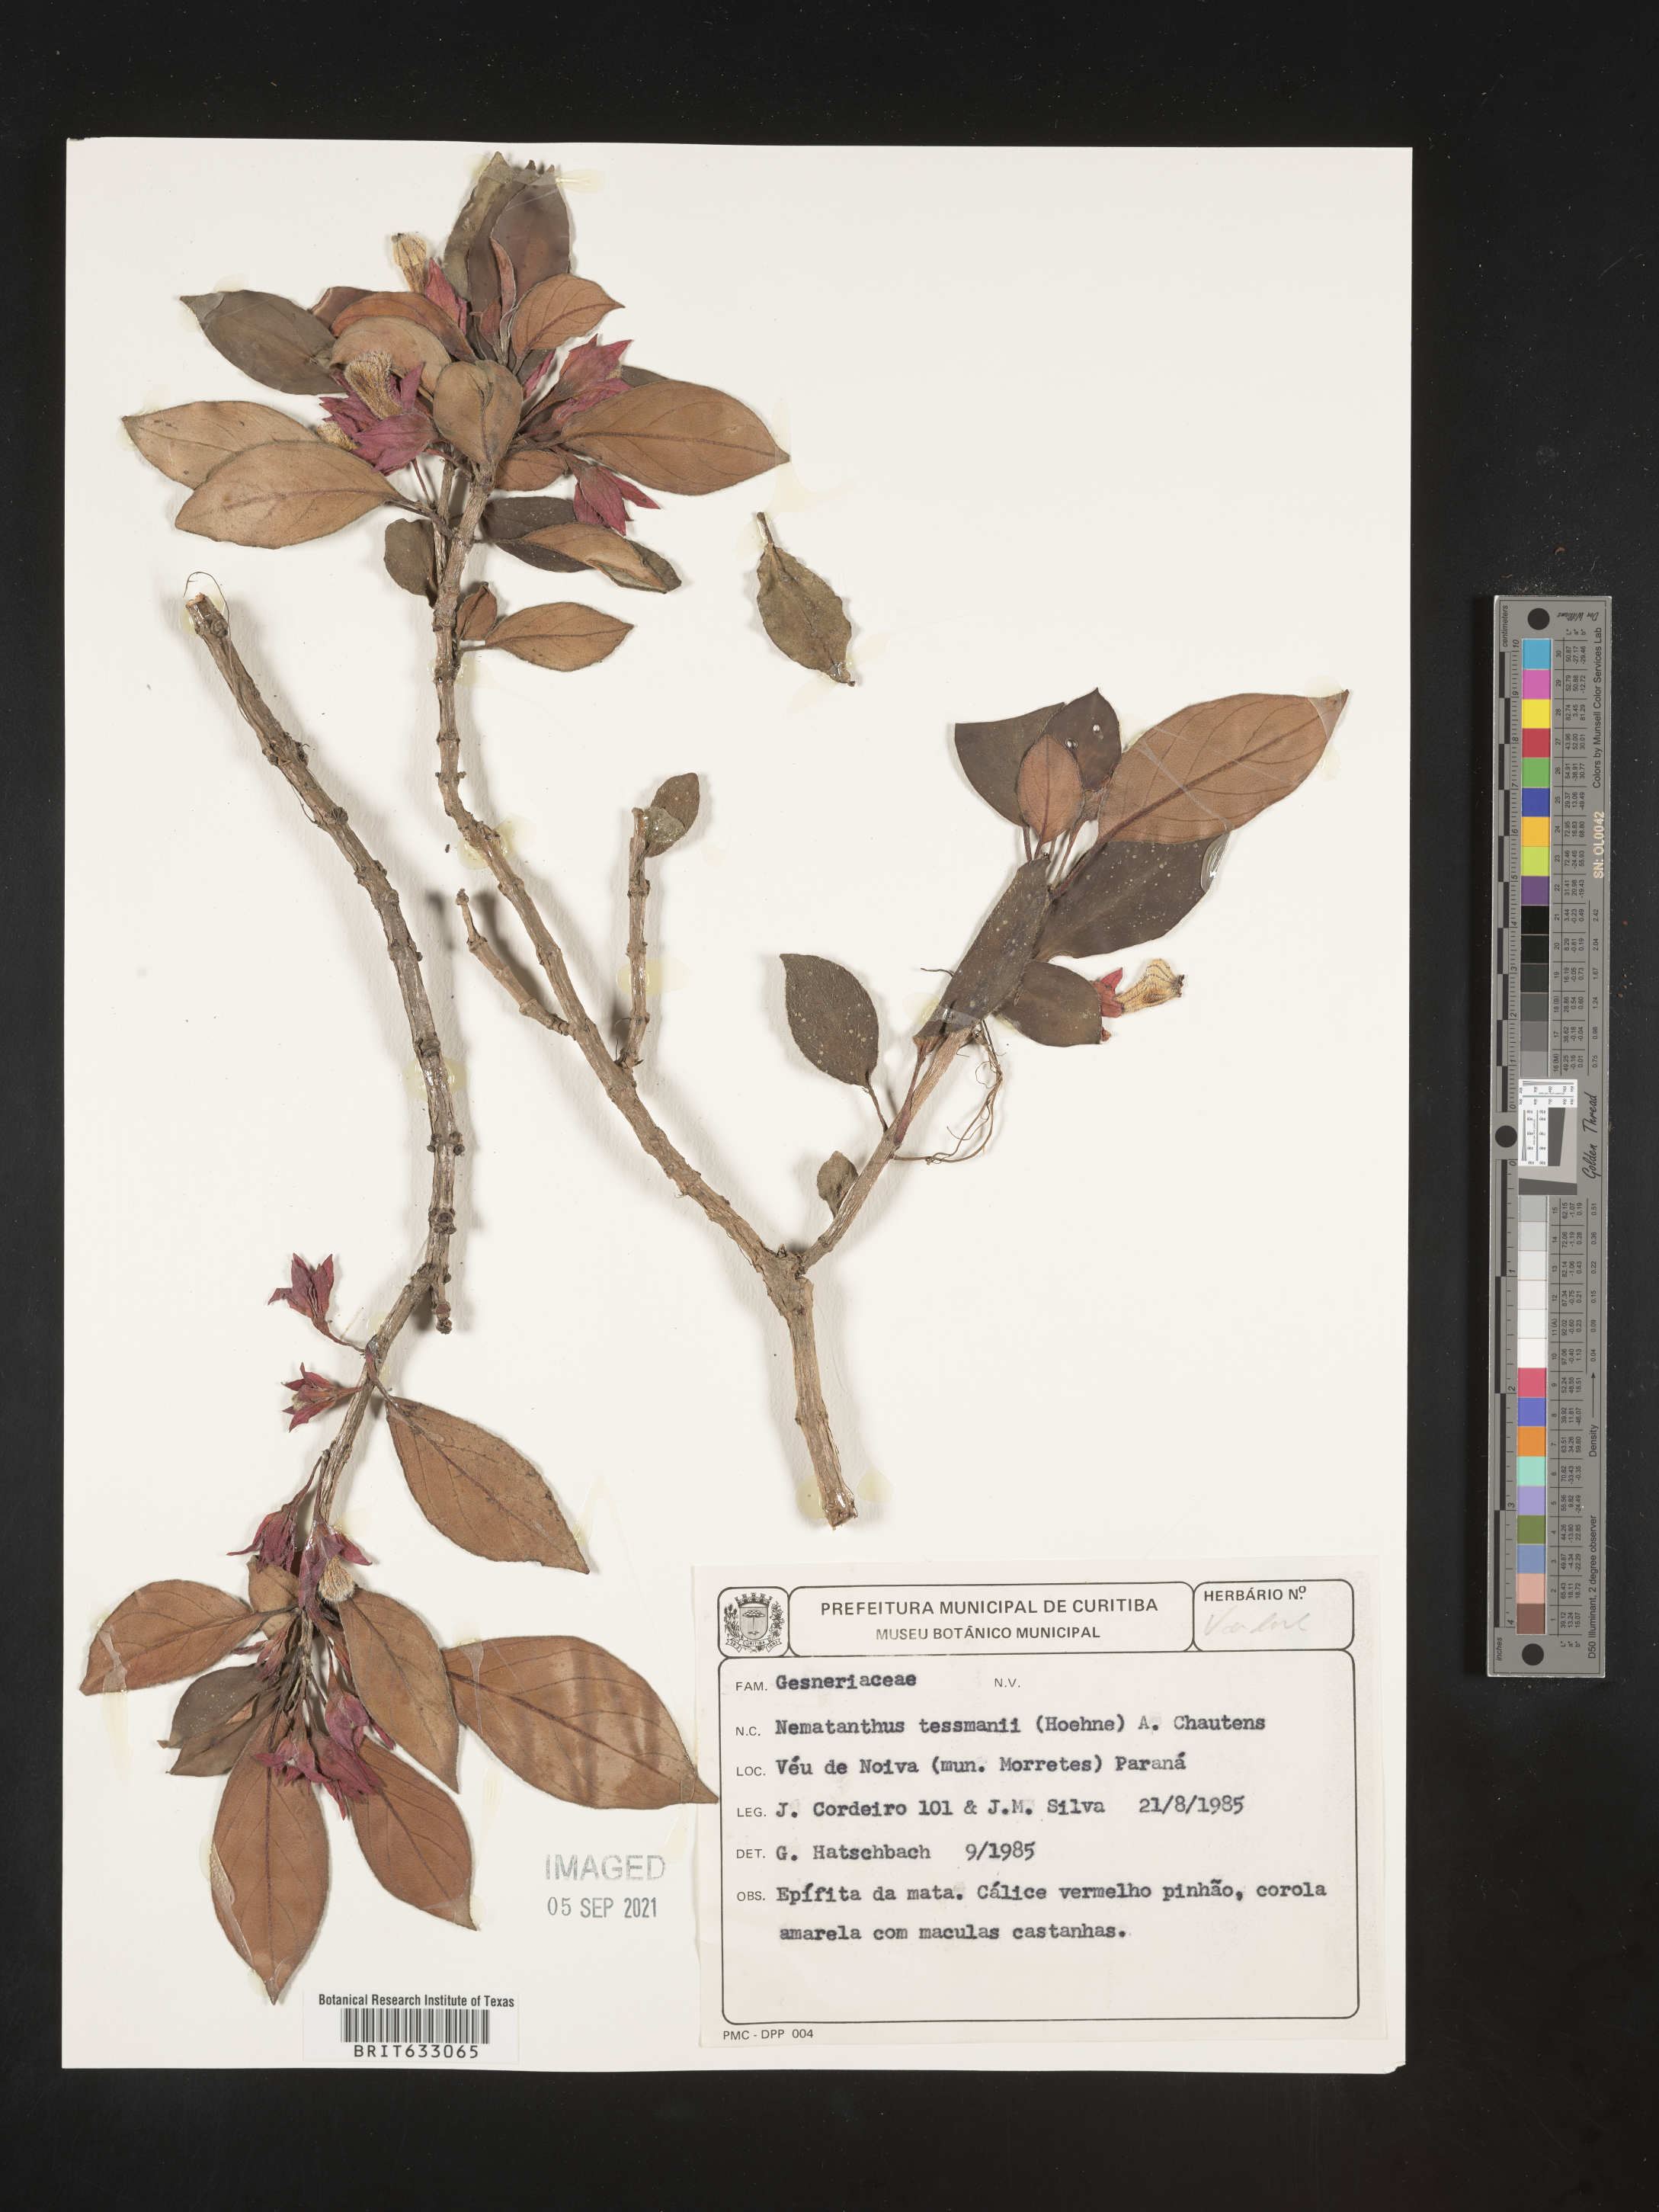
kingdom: Plantae
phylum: Tracheophyta
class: Magnoliopsida
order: Lamiales
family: Gesneriaceae
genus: Nematanthus
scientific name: Nematanthus
